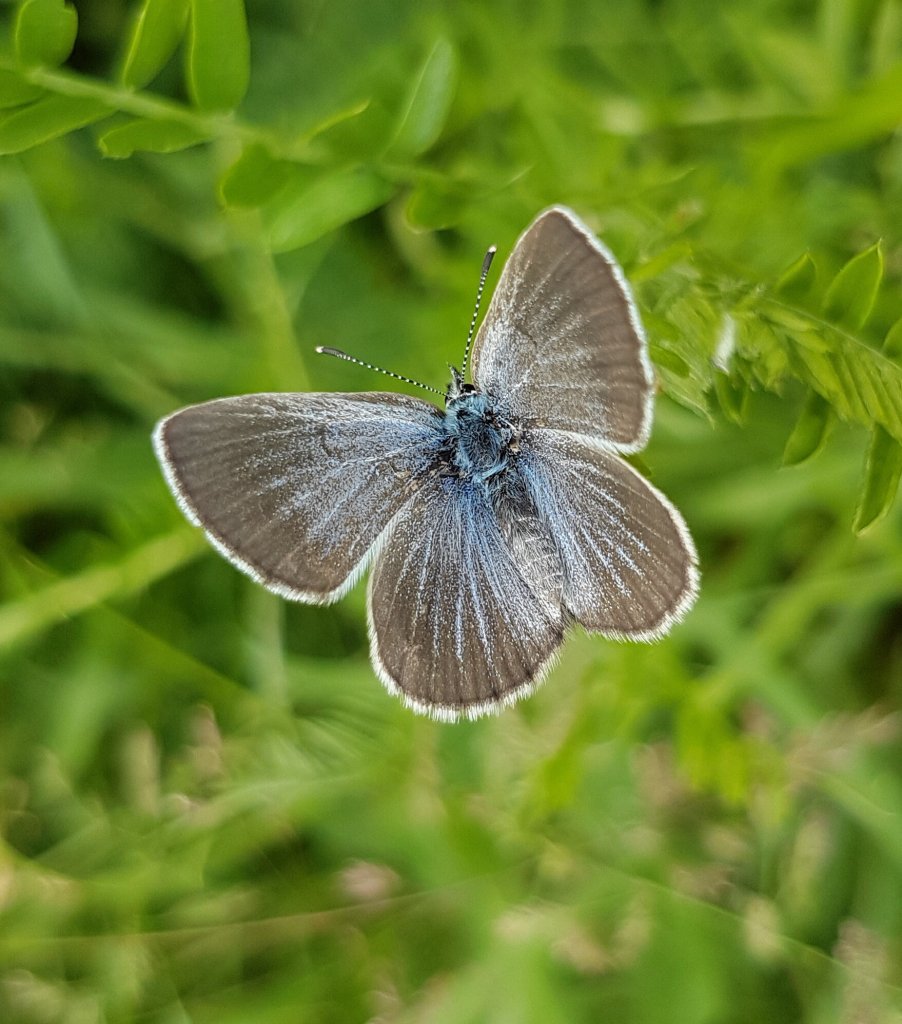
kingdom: Animalia
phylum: Arthropoda
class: Insecta
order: Lepidoptera
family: Lycaenidae
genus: Glaucopsyche
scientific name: Glaucopsyche lygdamus
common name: Silvery Blue
